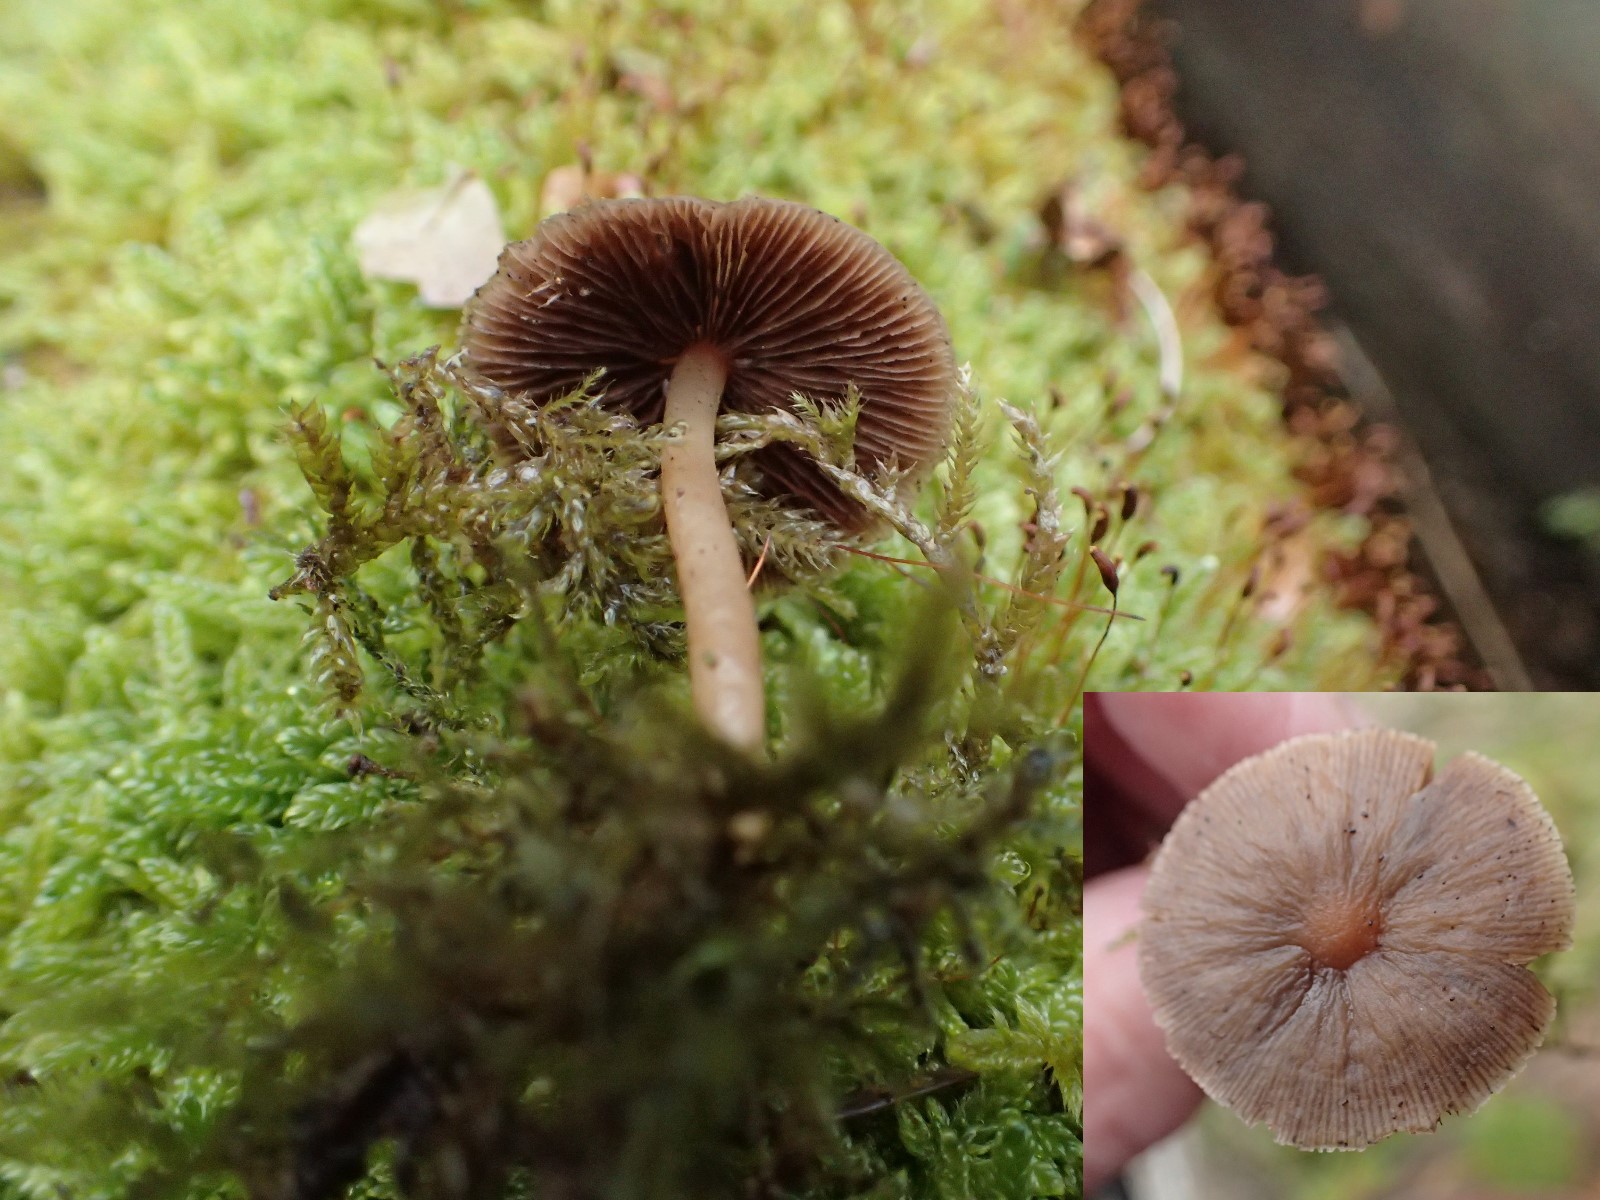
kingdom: Fungi
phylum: Basidiomycota
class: Agaricomycetes
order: Agaricales
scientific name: Agaricales
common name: champignonordenen
